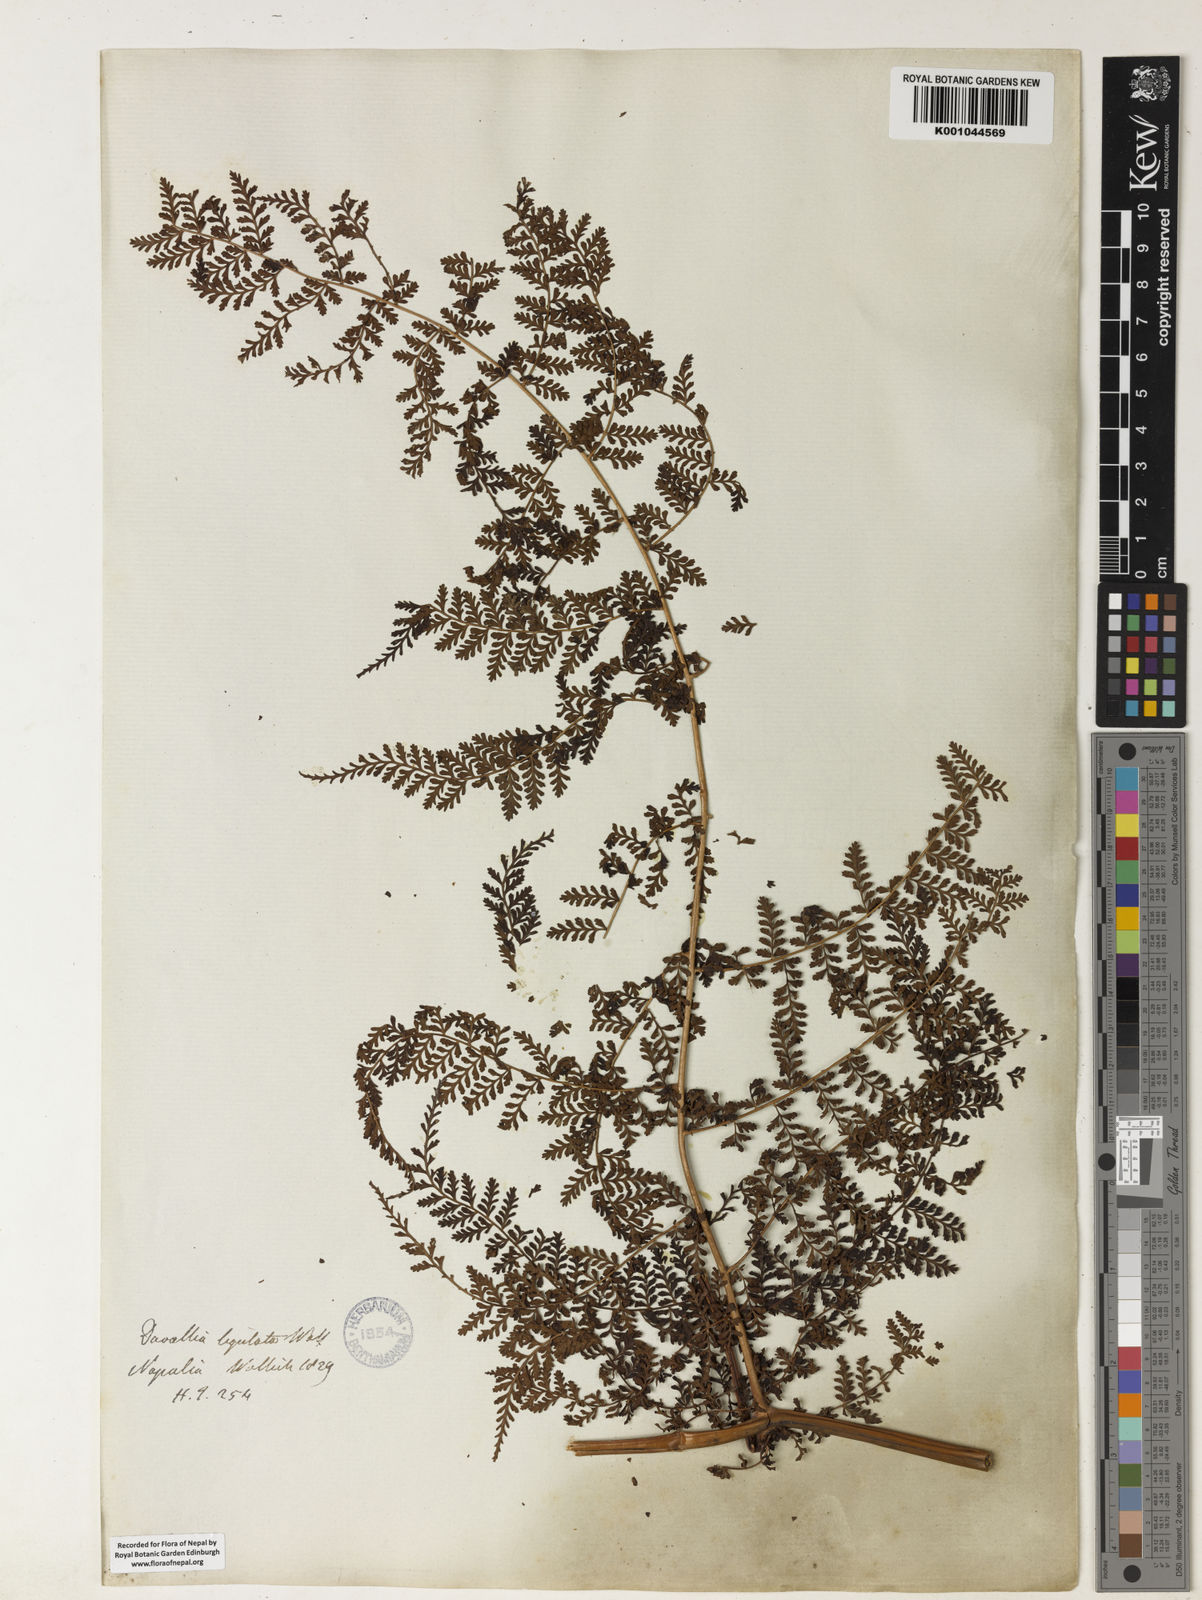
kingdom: Plantae
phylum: Tracheophyta
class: Polypodiopsida
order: Polypodiales
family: Dryopteridaceae
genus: Dryopteris
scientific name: Dryopteris nodosa
